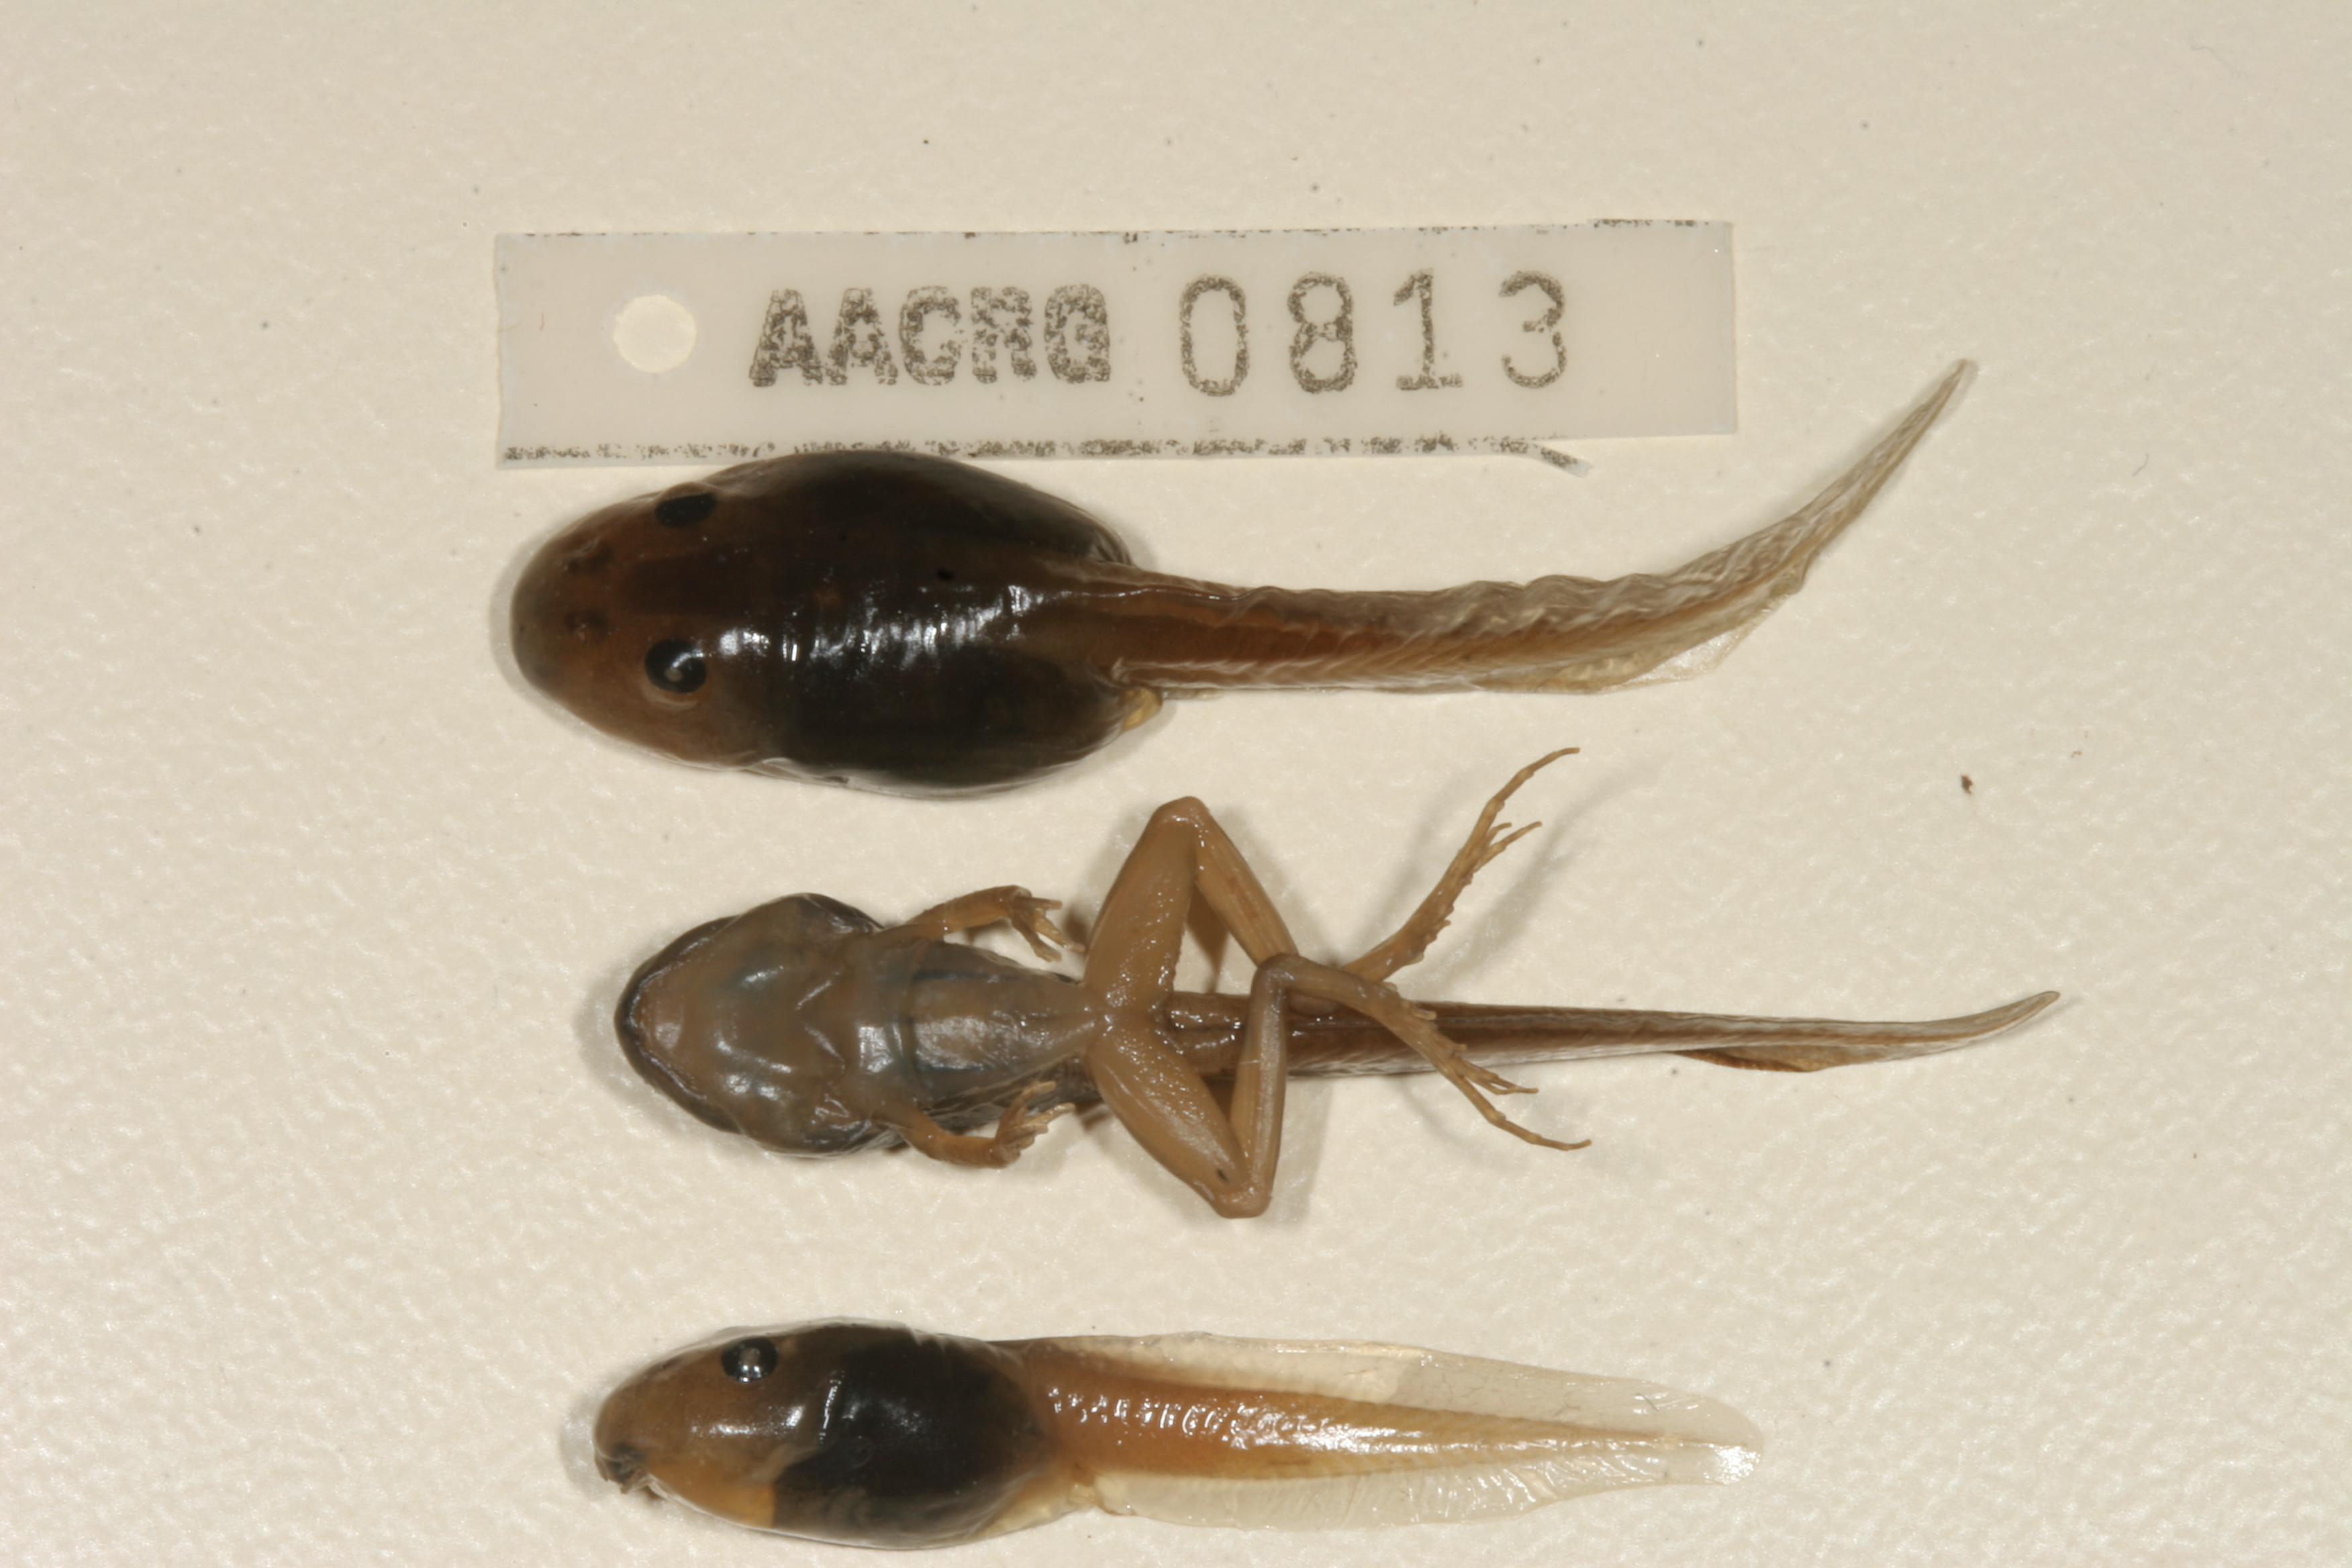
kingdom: Animalia
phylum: Chordata
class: Amphibia
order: Anura
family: Pyxicephalidae
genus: Strongylopus
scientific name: Strongylopus grayii
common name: Gray's stream frog
